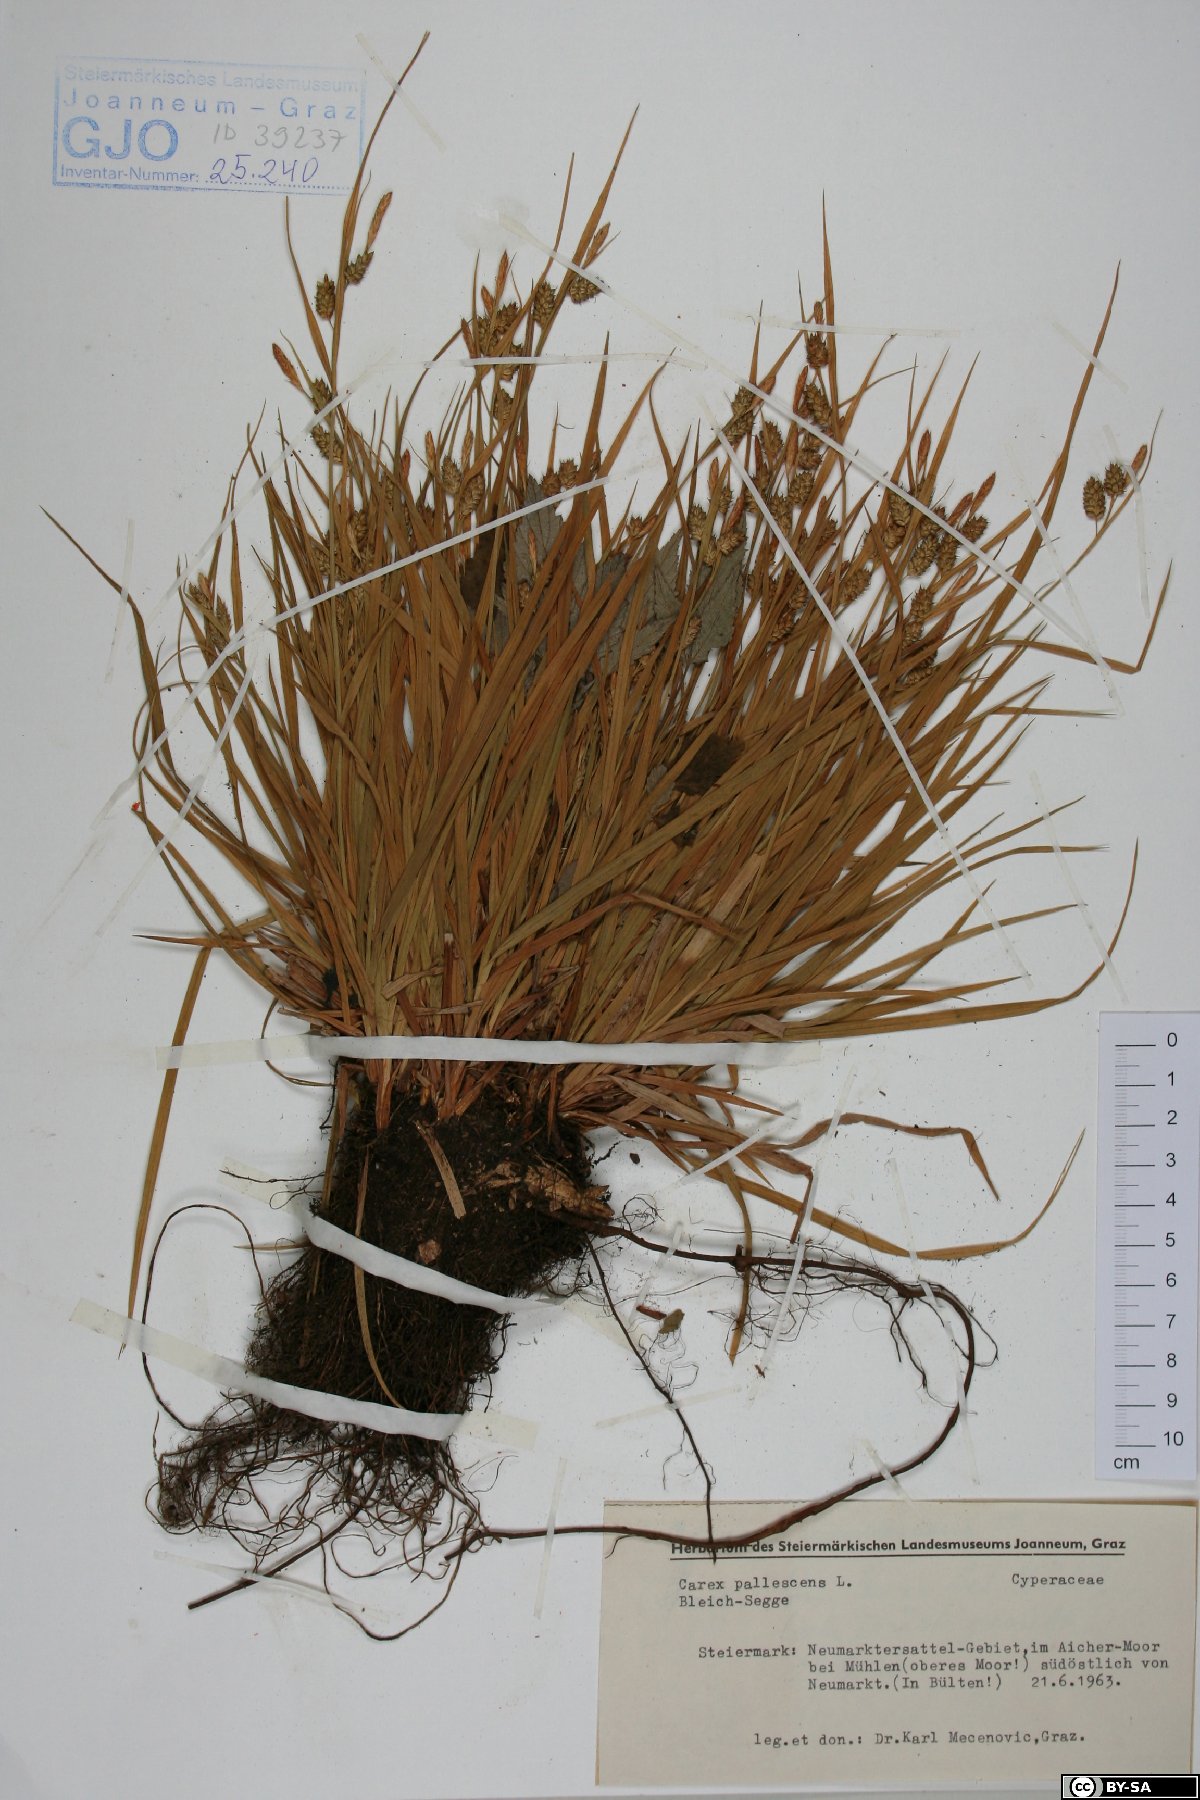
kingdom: Plantae
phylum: Tracheophyta
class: Liliopsida
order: Poales
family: Cyperaceae
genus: Carex
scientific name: Carex pallescens
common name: Pale sedge
